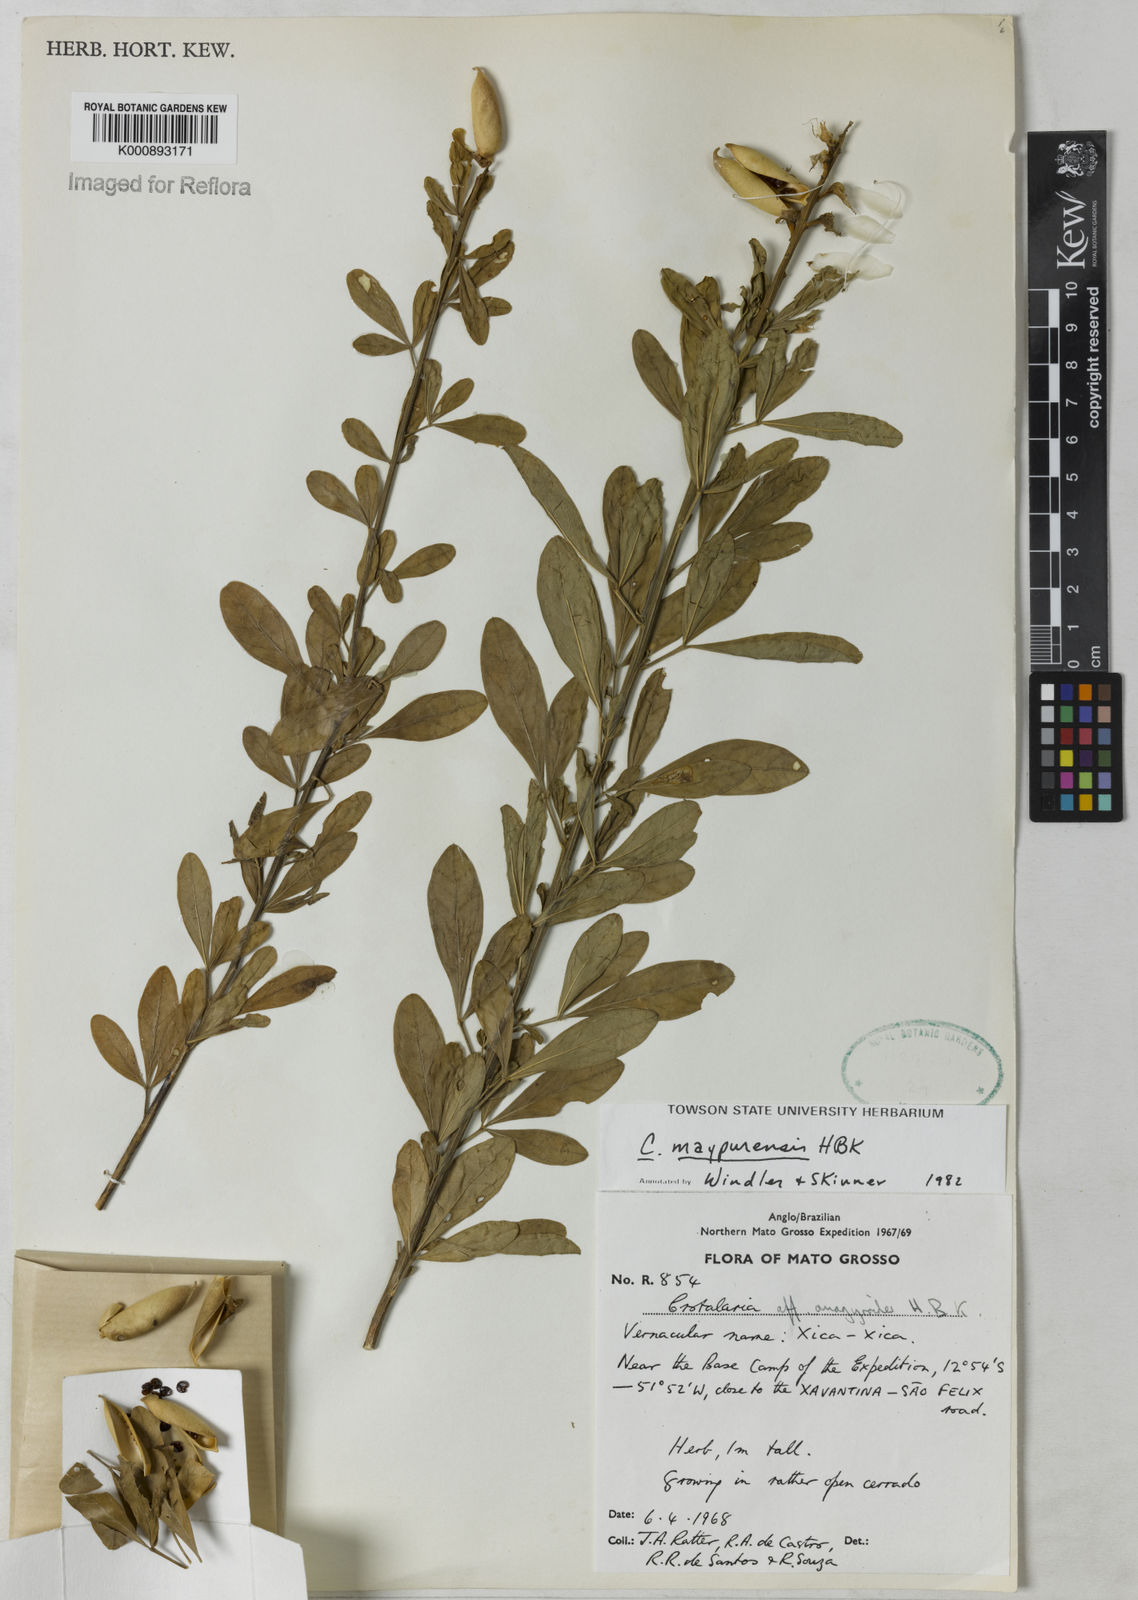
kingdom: Plantae
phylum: Tracheophyta
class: Magnoliopsida
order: Fabales
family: Fabaceae
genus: Crotalaria
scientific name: Crotalaria maypurensis
